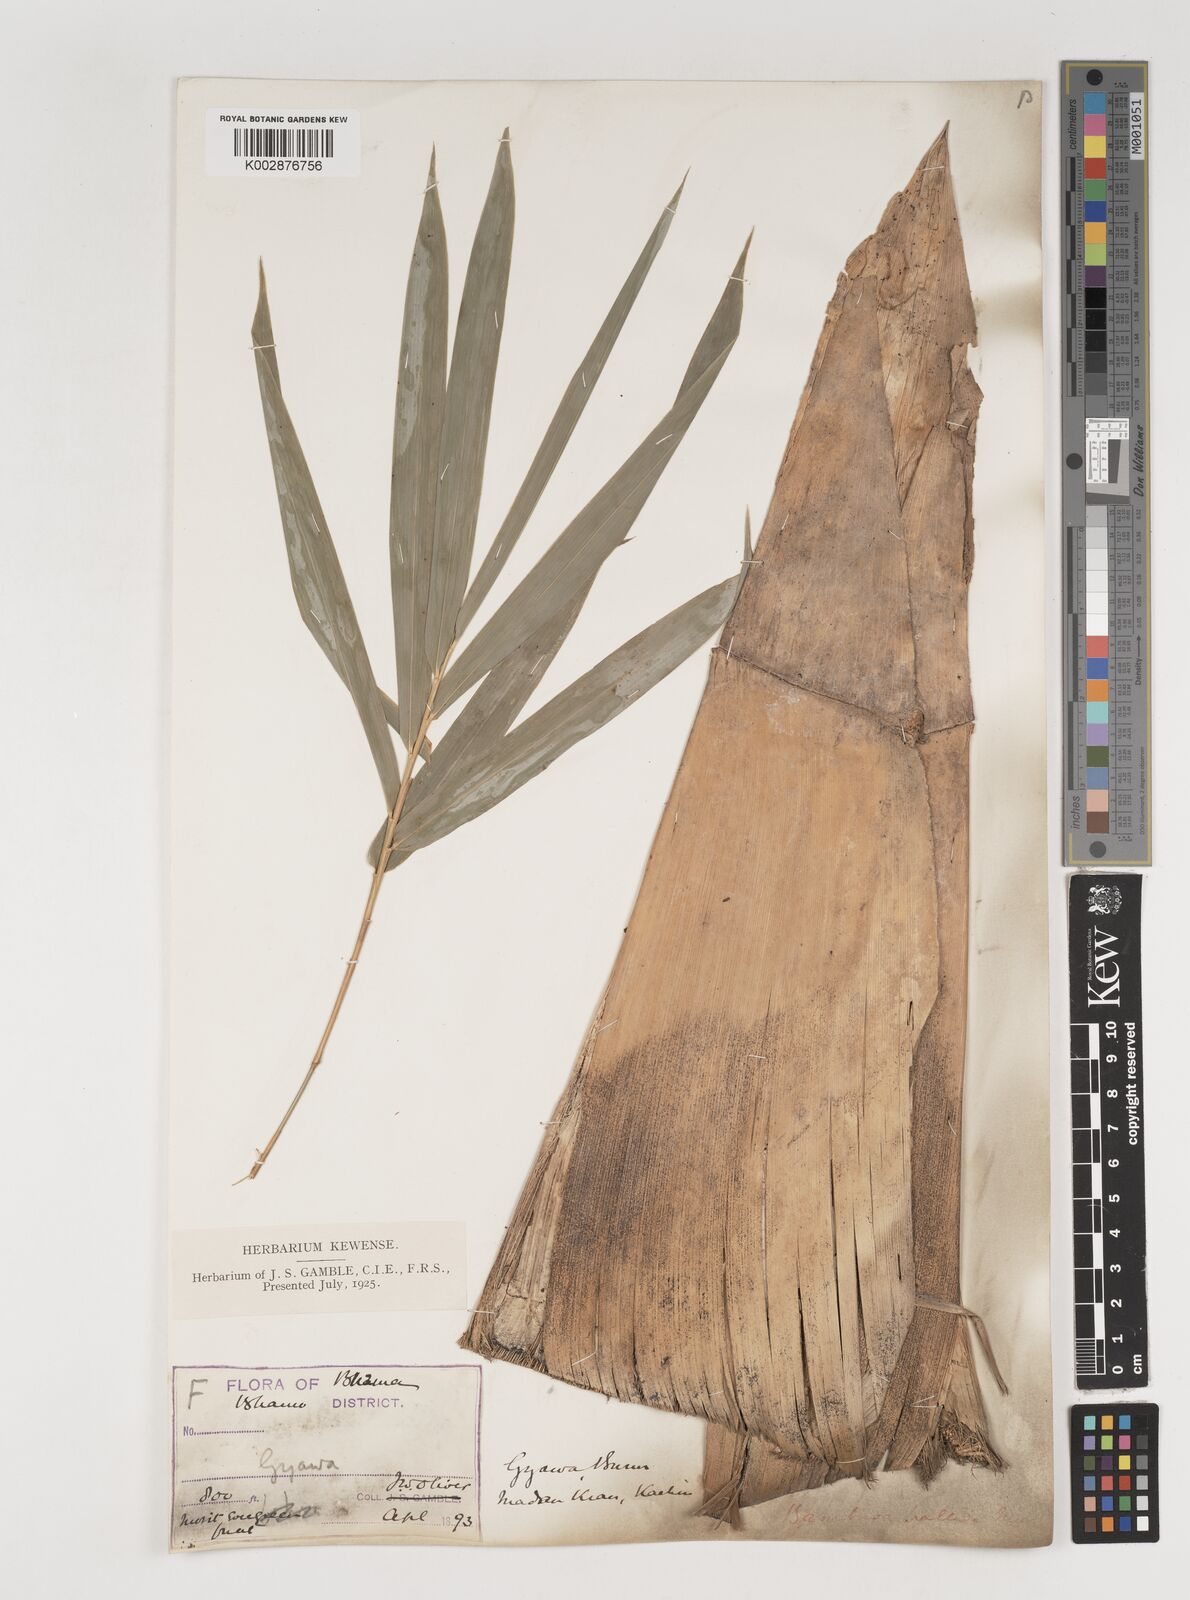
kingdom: Plantae
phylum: Tracheophyta
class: Liliopsida
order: Poales
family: Poaceae
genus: Bambusa
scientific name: Bambusa pallida
